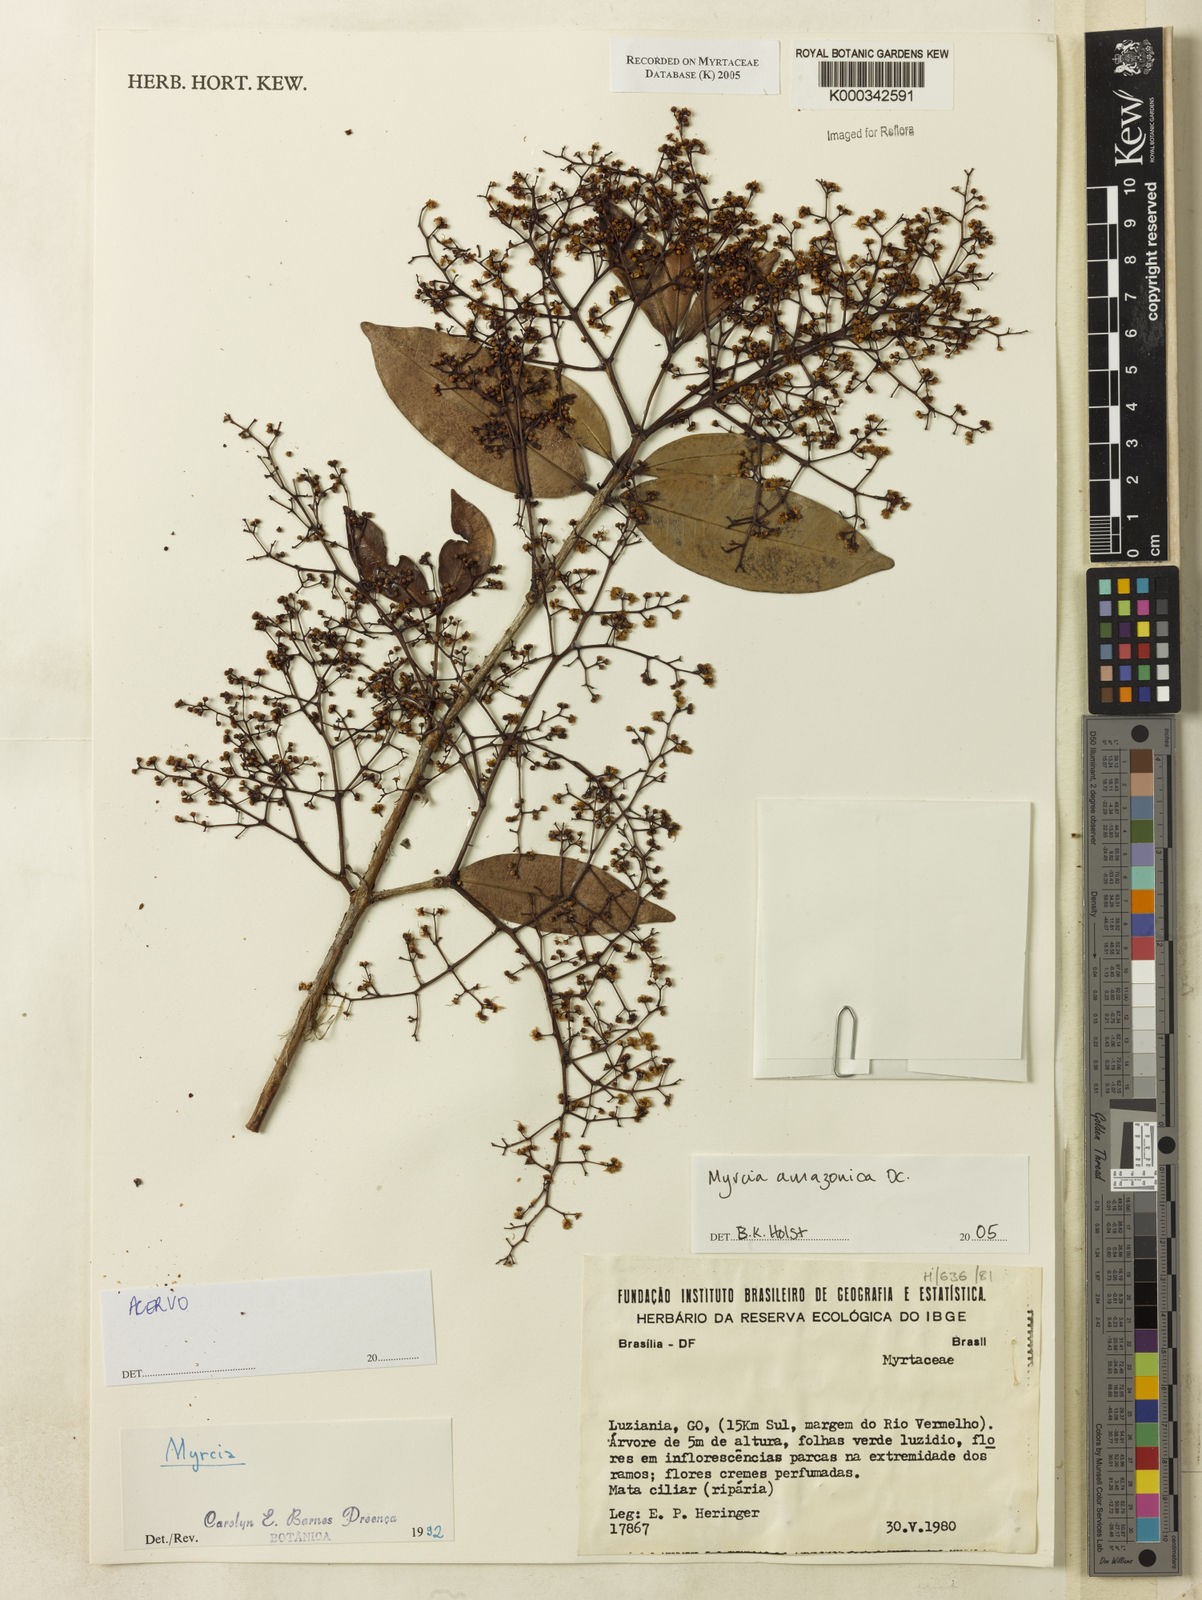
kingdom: Plantae
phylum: Tracheophyta
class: Magnoliopsida
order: Myrtales
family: Myrtaceae
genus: Myrcia
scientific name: Myrcia amazonica
